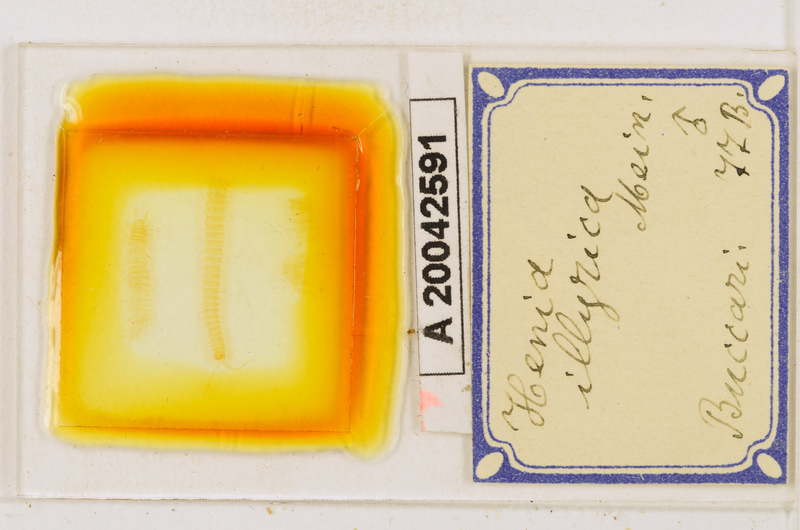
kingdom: Animalia
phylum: Arthropoda
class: Chilopoda
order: Geophilomorpha
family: Dignathodontidae
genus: Henia
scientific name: Henia illyrica
